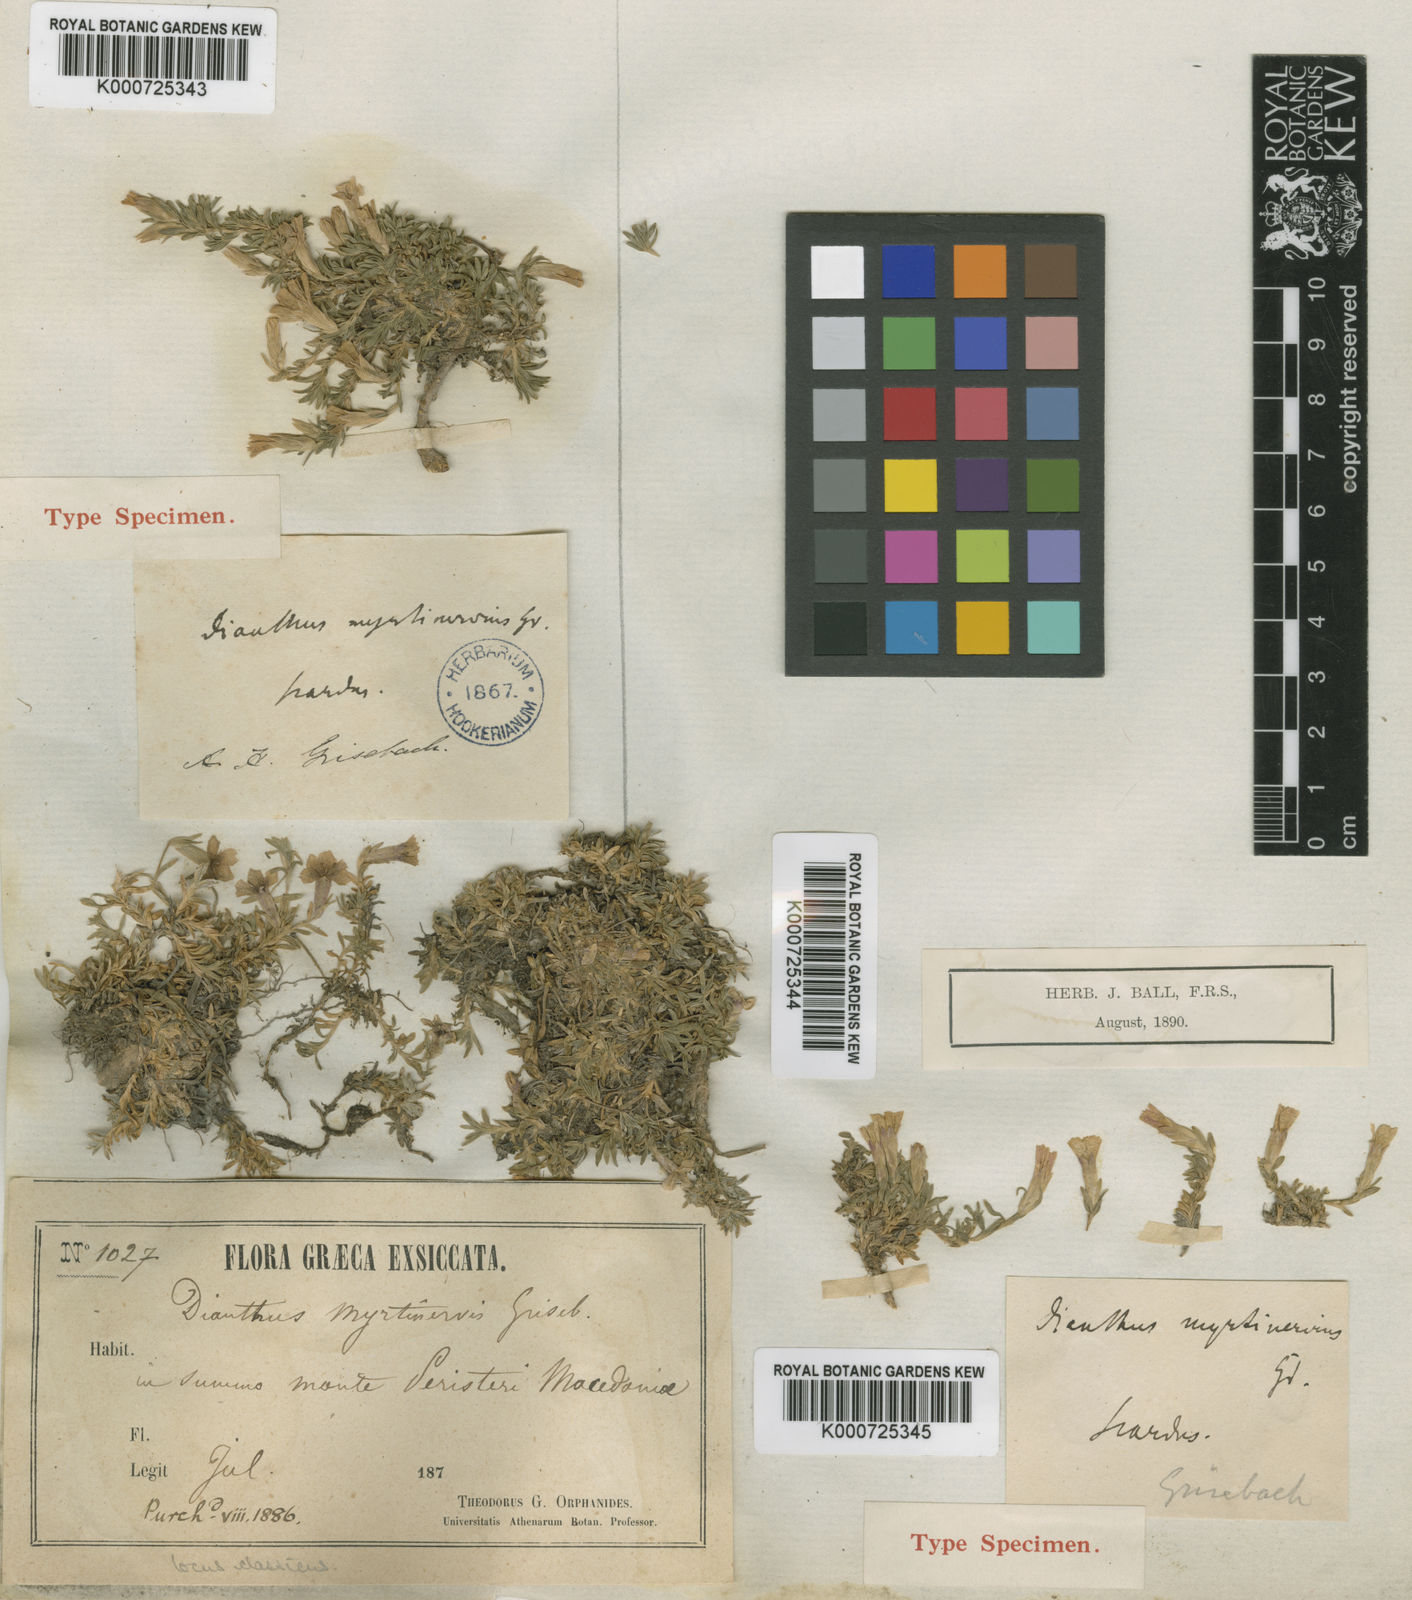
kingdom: Plantae
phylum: Tracheophyta
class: Magnoliopsida
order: Caryophyllales
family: Caryophyllaceae
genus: Dianthus
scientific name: Dianthus myrtinervius
